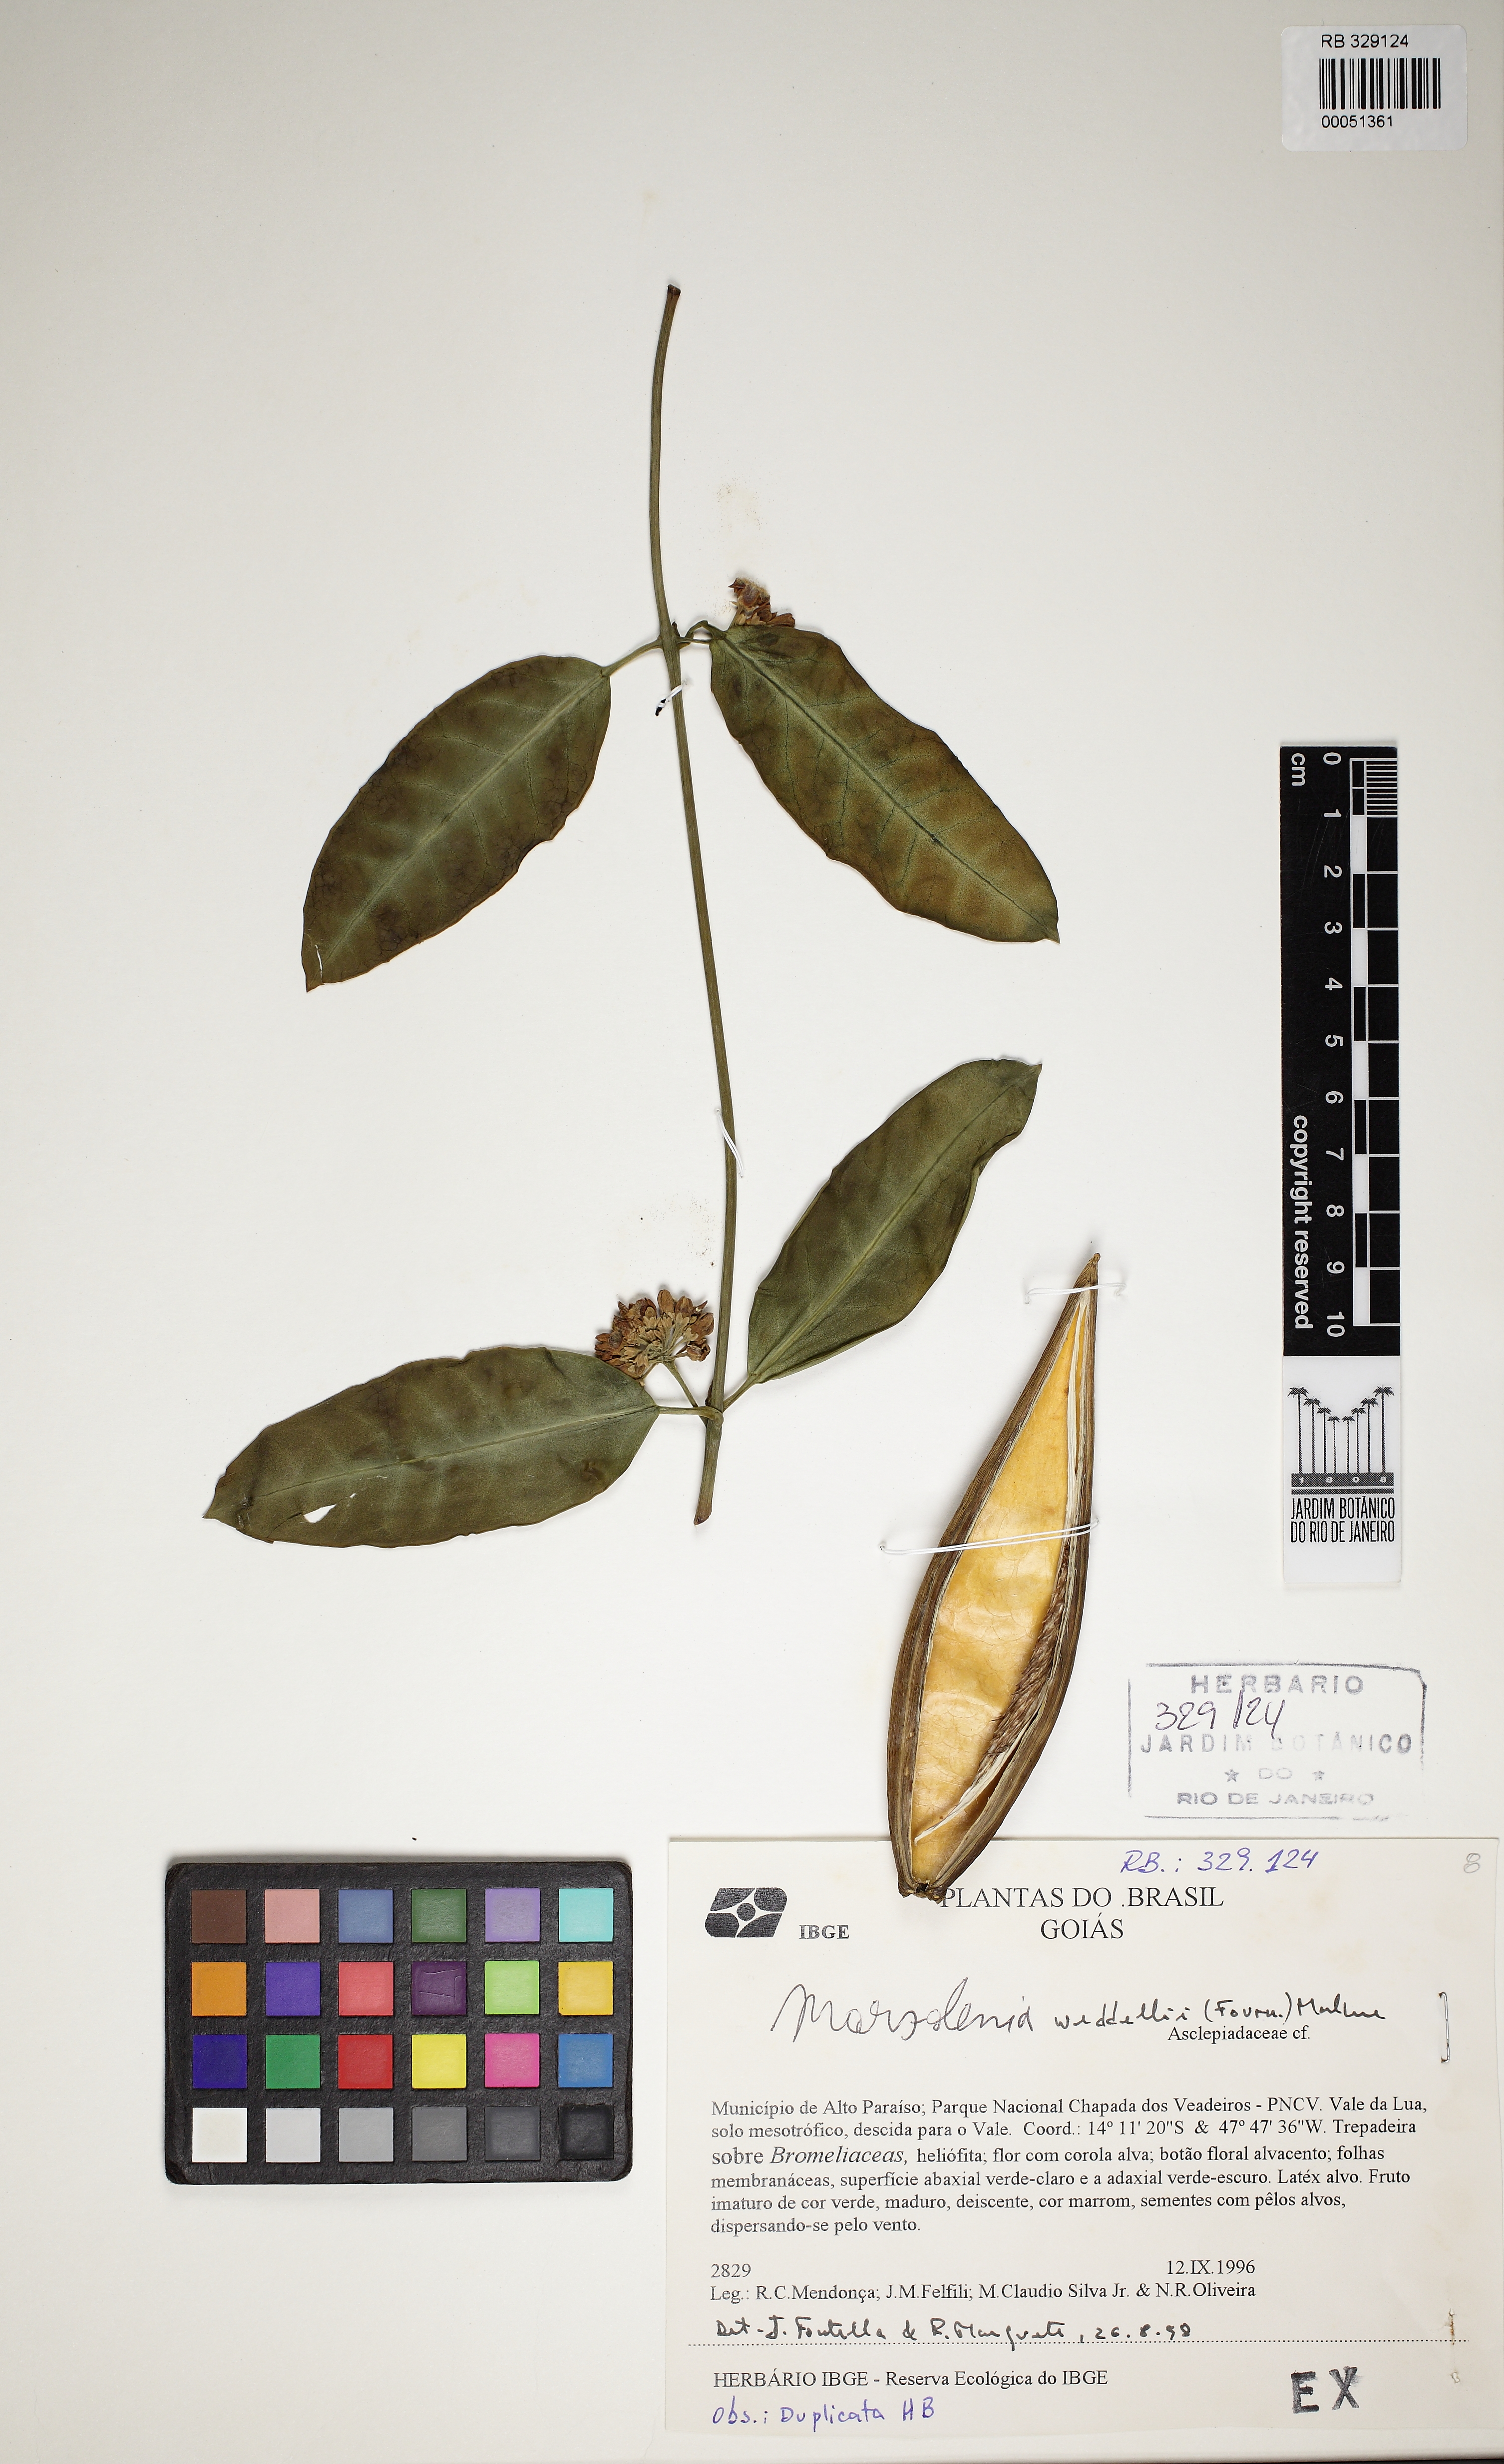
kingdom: Plantae
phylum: Tracheophyta
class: Magnoliopsida
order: Gentianales
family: Apocynaceae
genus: Ruehssia
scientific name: Ruehssia weddellii
